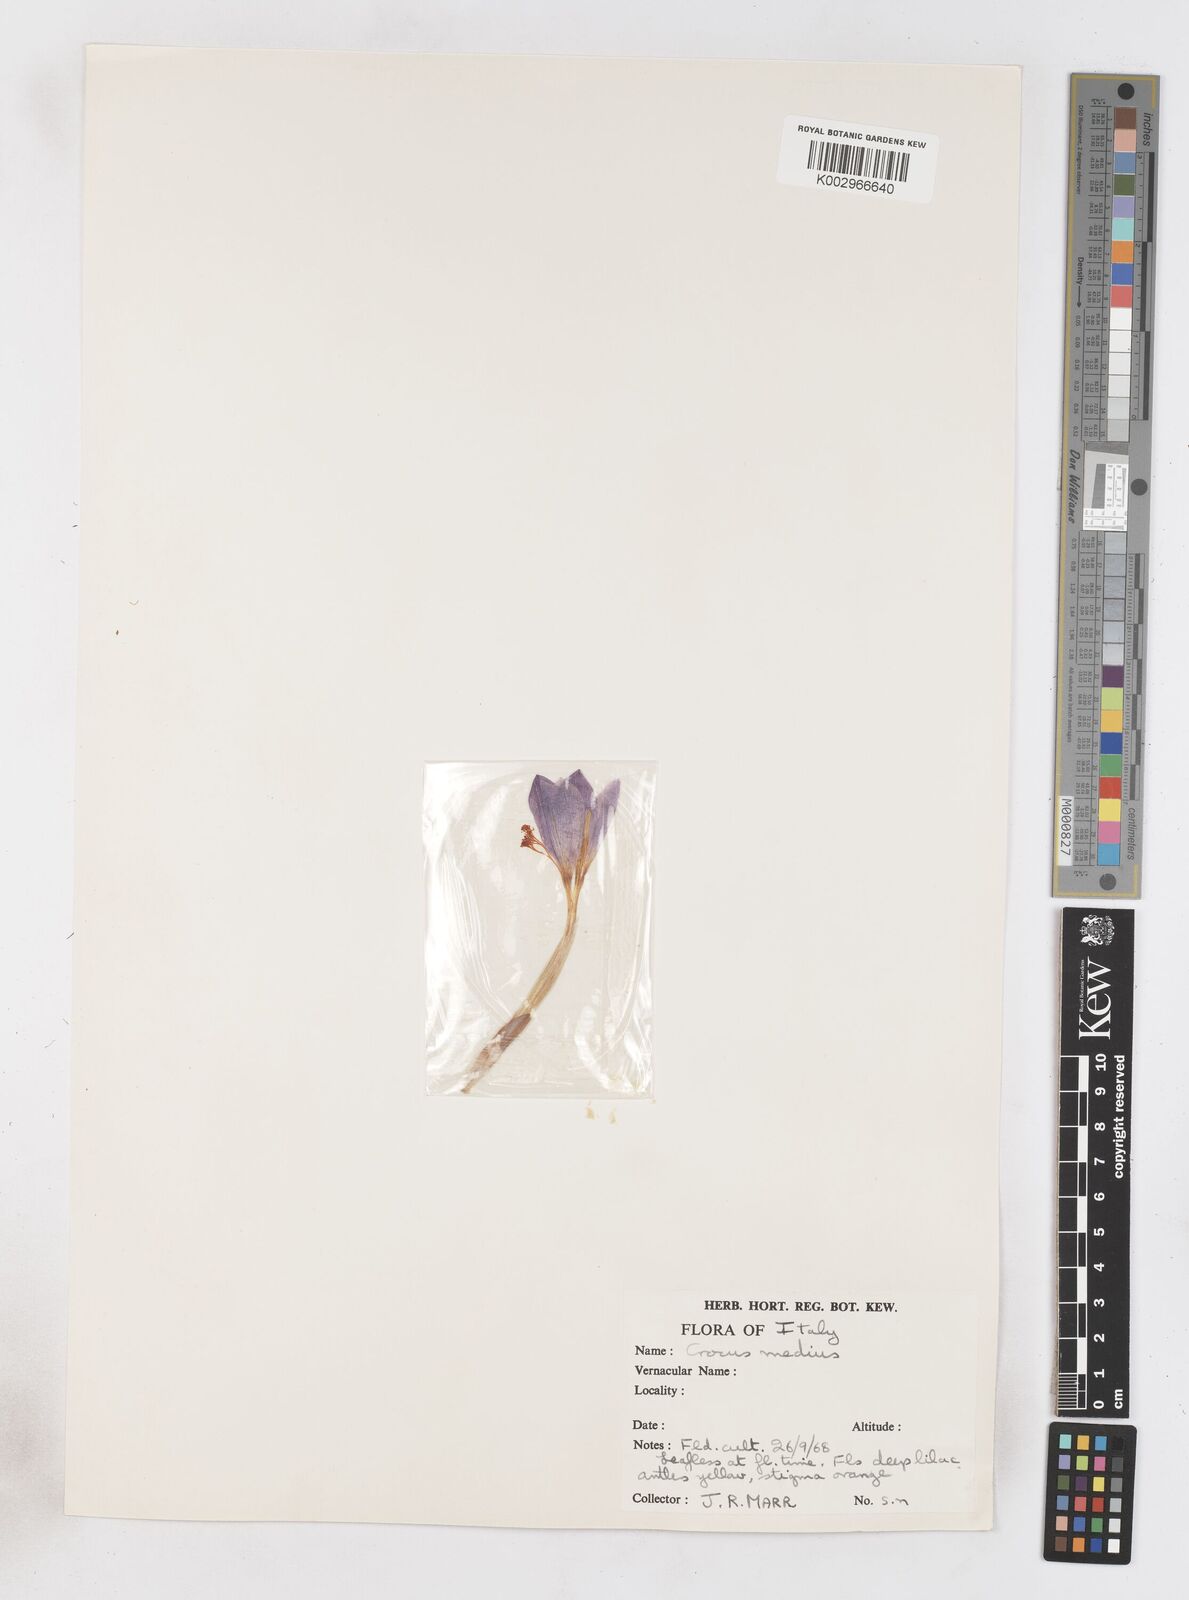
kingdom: Plantae
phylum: Tracheophyta
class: Liliopsida
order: Asparagales
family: Iridaceae
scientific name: Iridaceae
